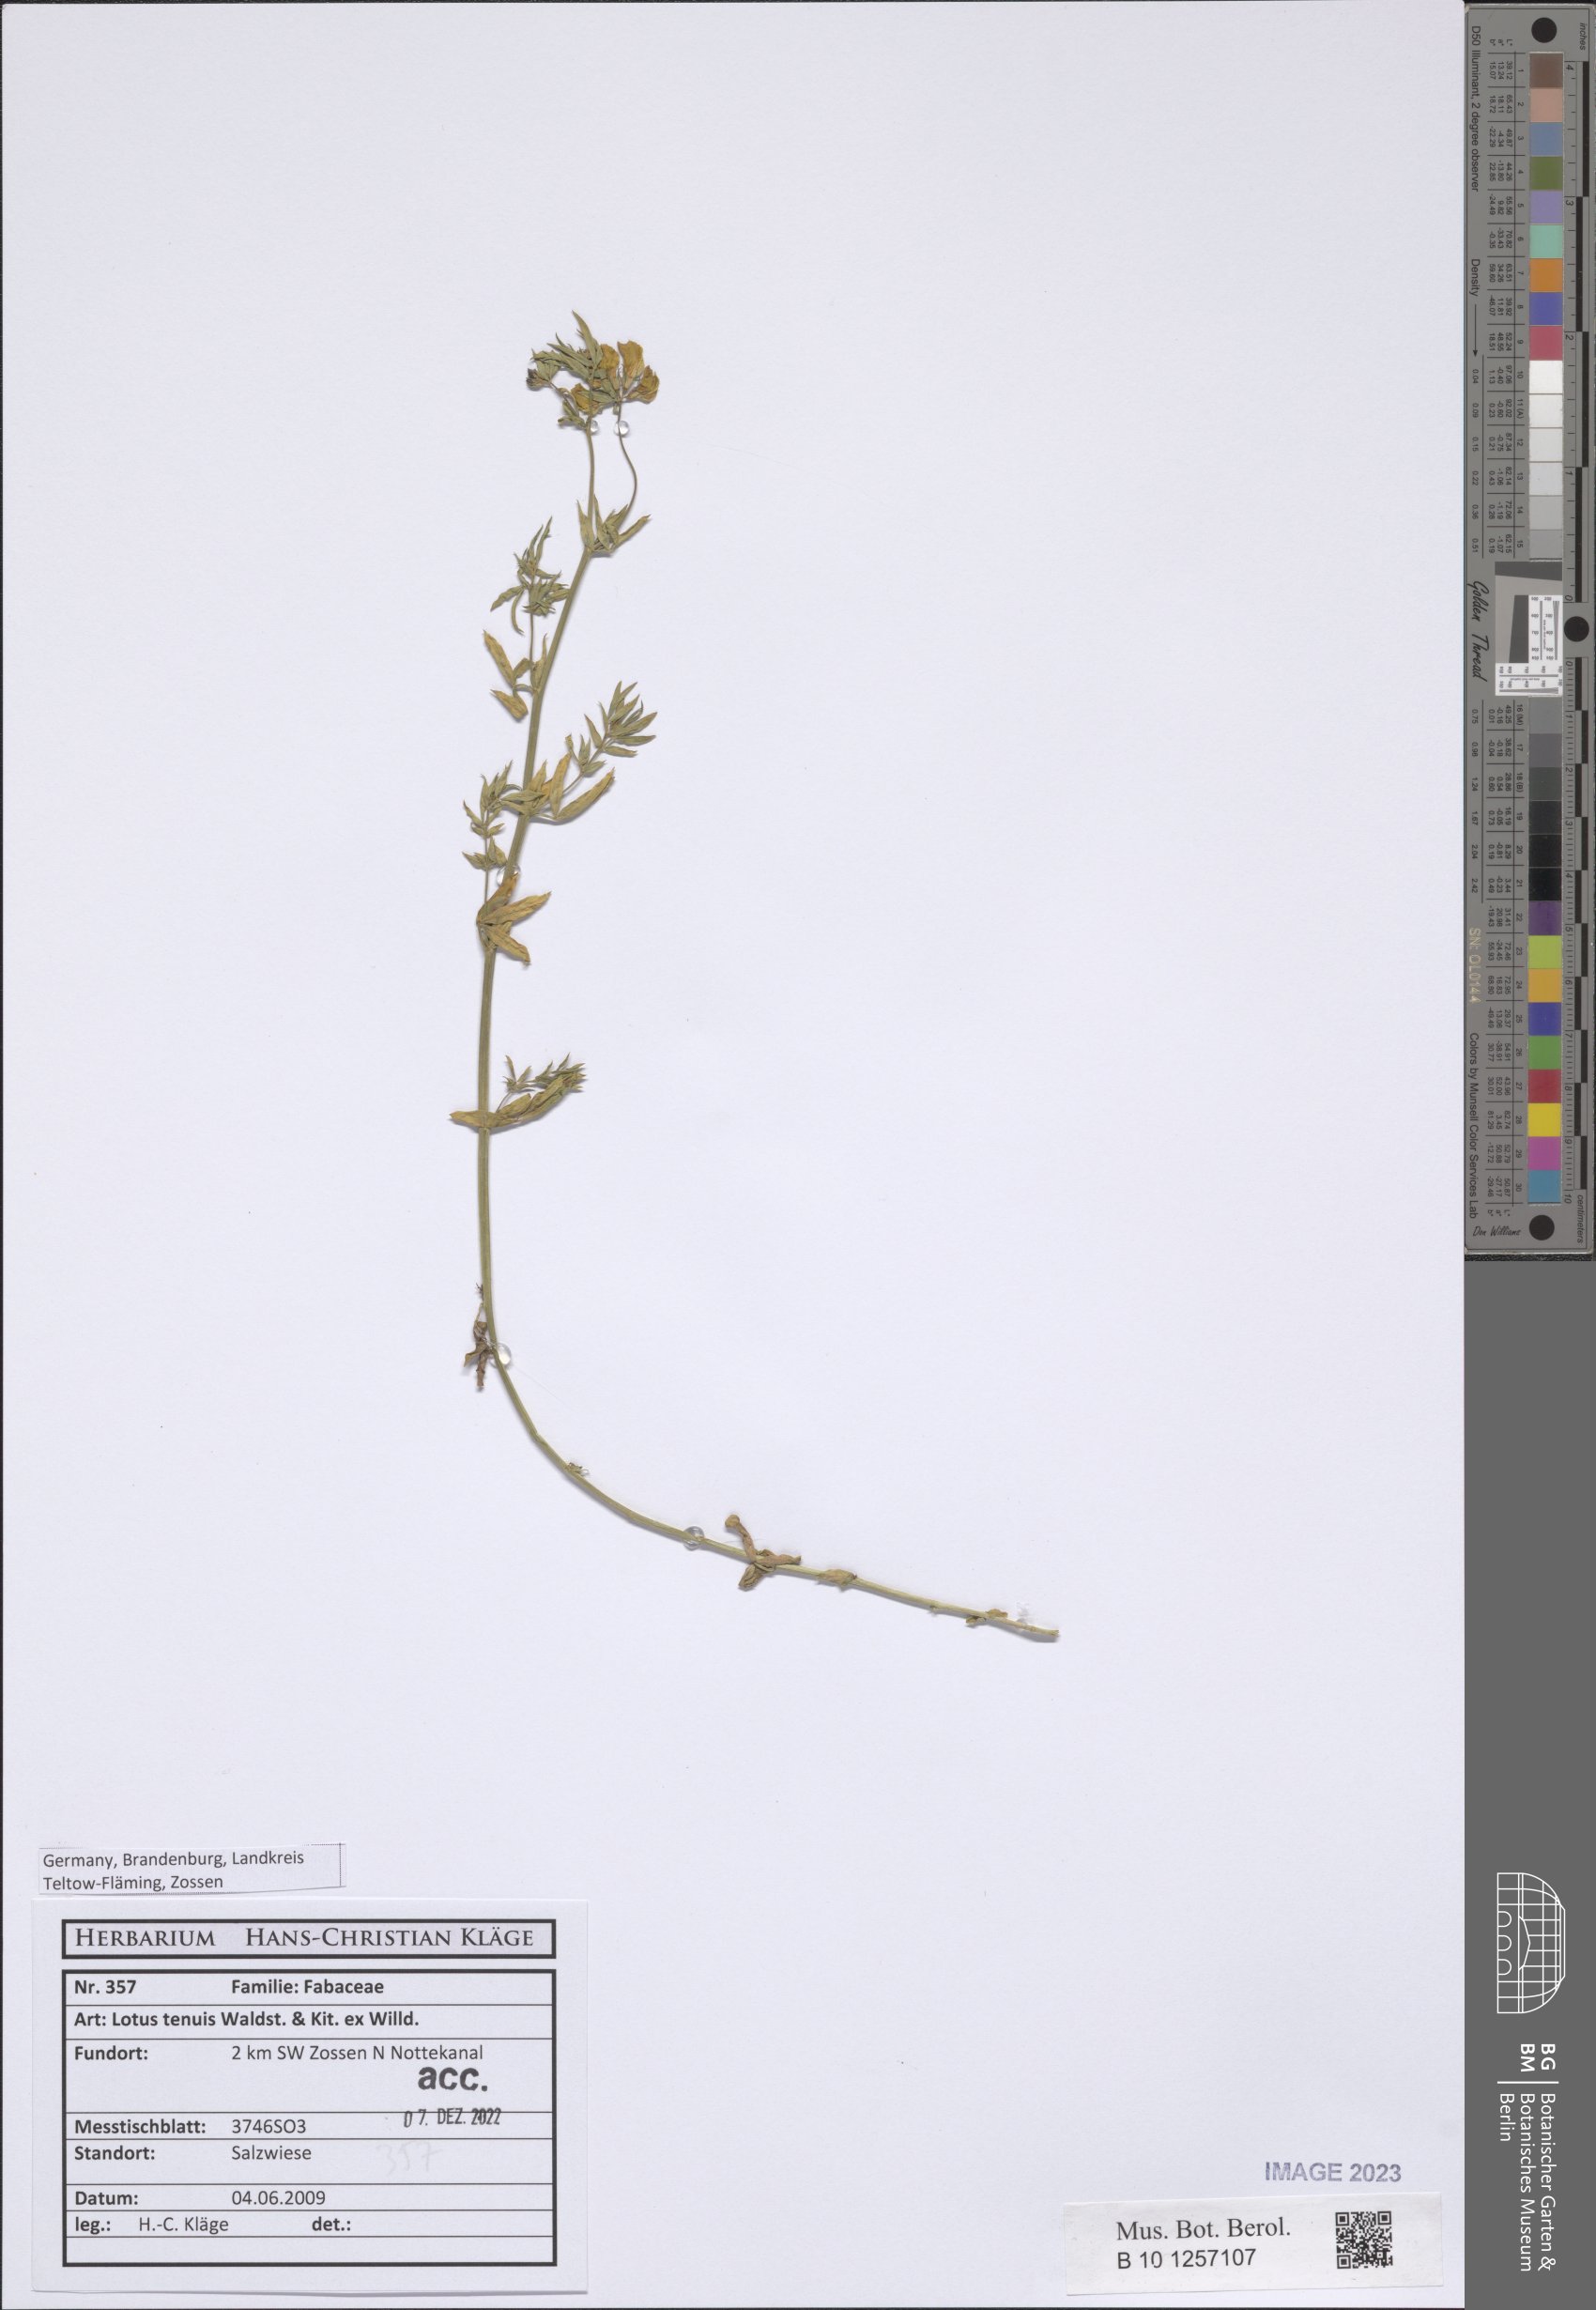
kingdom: Plantae
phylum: Tracheophyta
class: Magnoliopsida
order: Fabales
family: Fabaceae
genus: Lotus
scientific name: Lotus tenuis
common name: Narrow-leaved bird's-foot-trefoil
